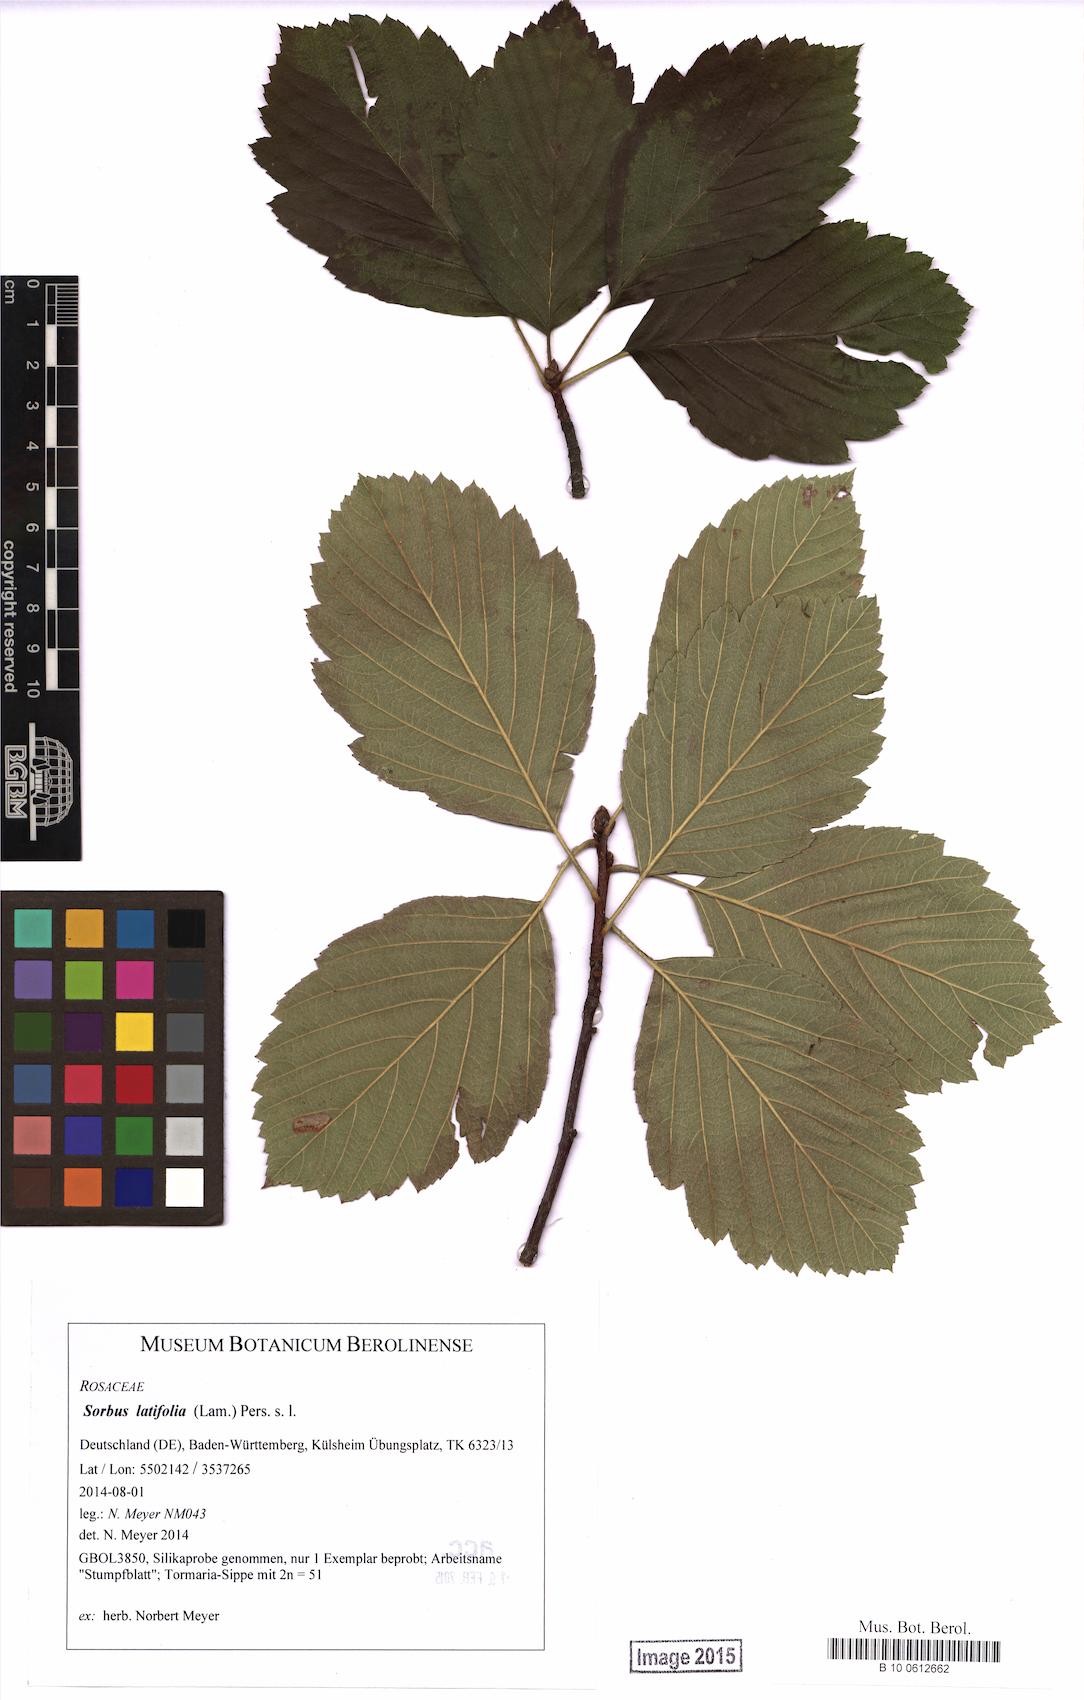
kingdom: Plantae
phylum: Tracheophyta
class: Magnoliopsida
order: Rosales
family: Rosaceae
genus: Karpatiosorbus
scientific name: Karpatiosorbus latifolia
